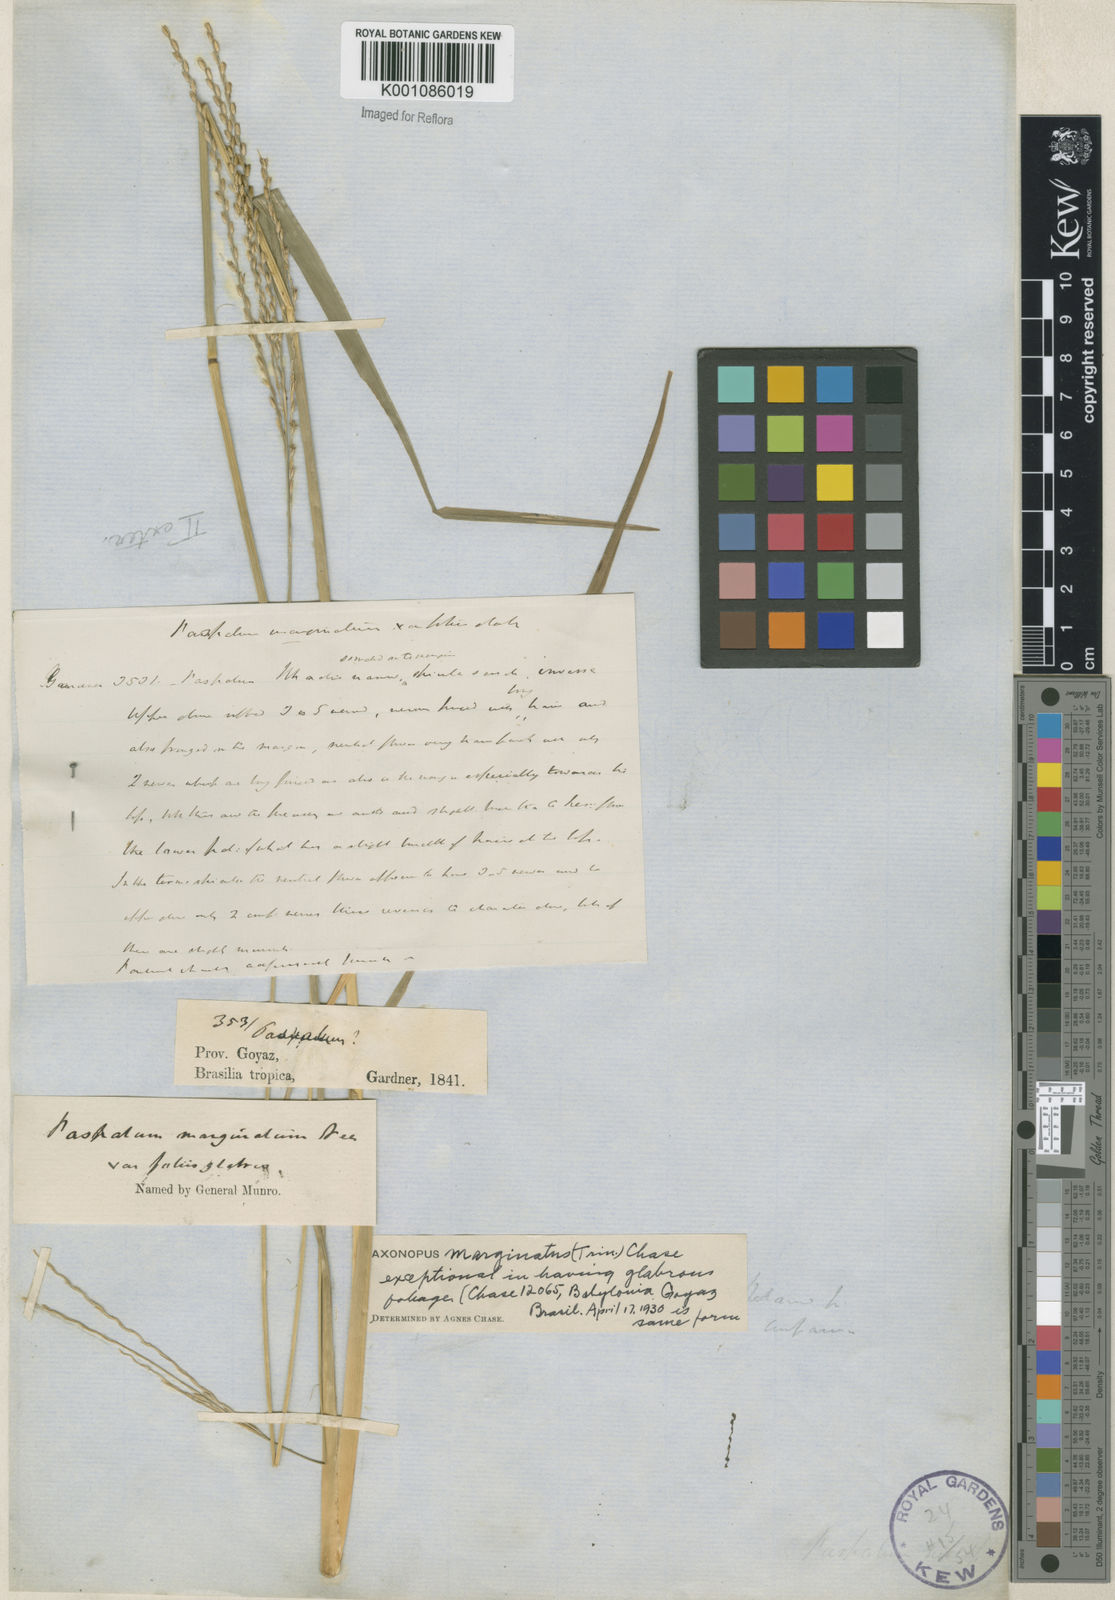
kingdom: Plantae
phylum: Tracheophyta
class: Liliopsida
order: Poales
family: Poaceae
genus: Axonopus
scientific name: Axonopus
